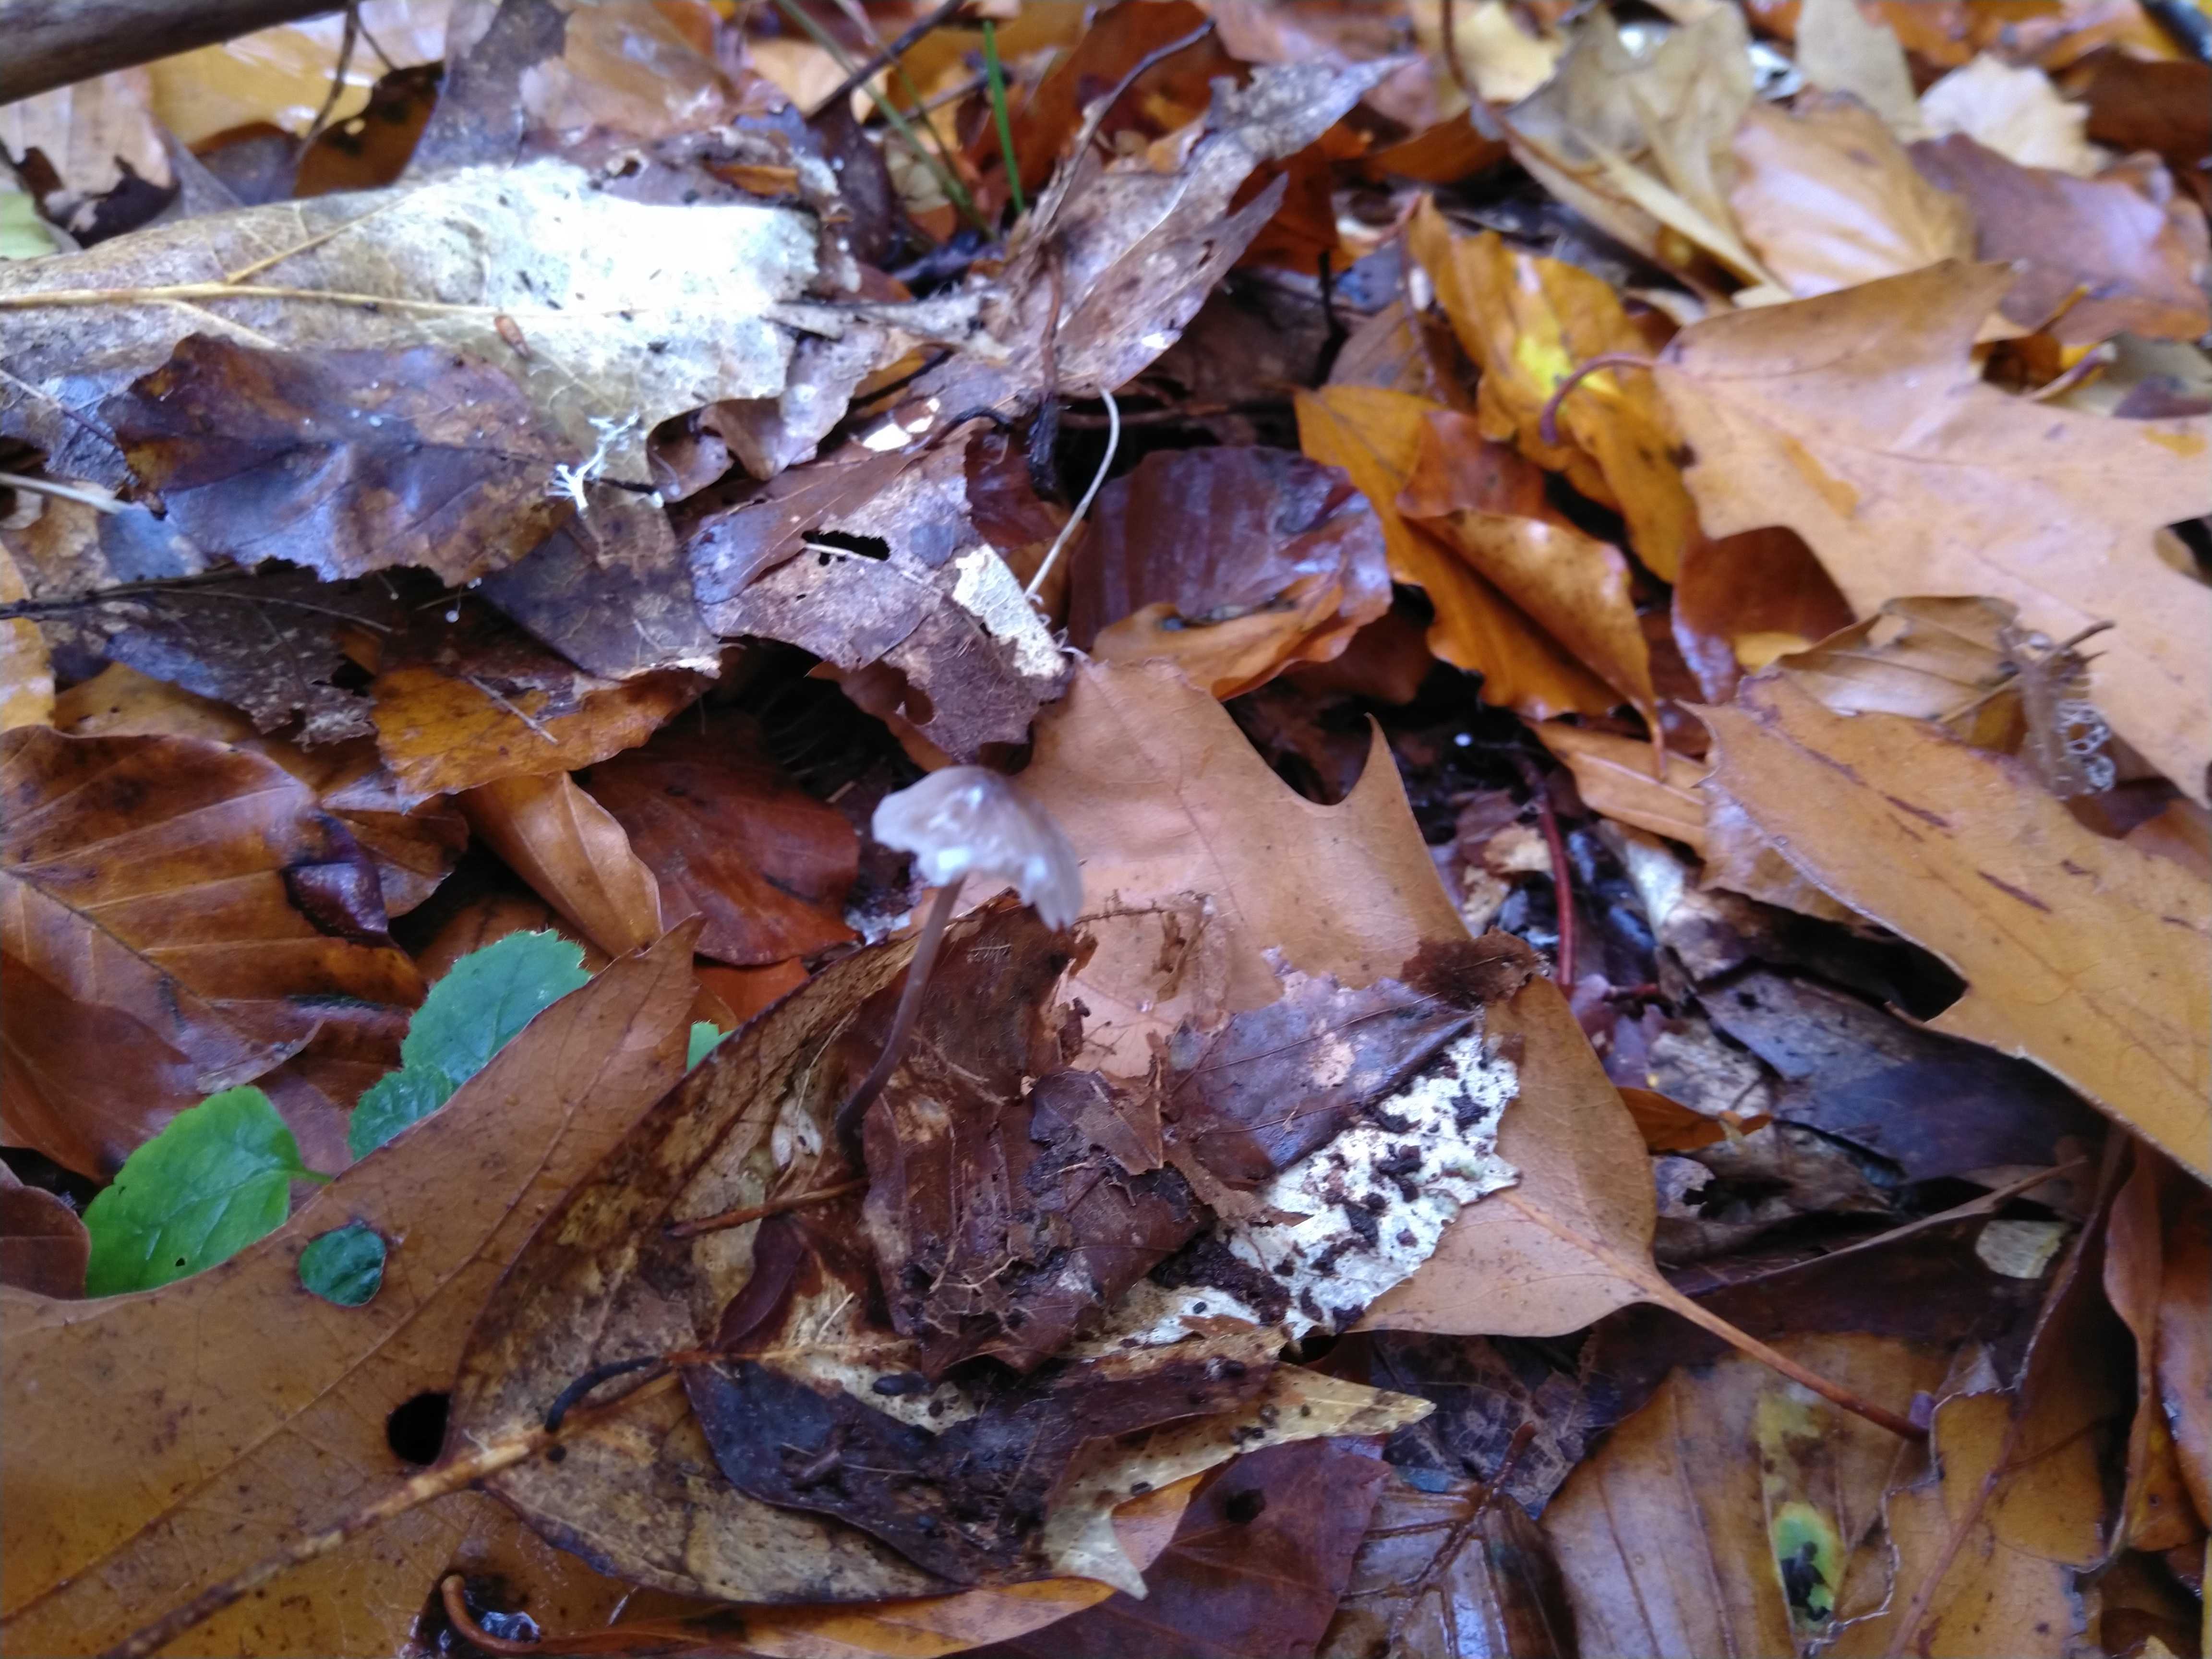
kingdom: Fungi
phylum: Basidiomycota
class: Agaricomycetes
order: Agaricales
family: Mycenaceae
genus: Mycena
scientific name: Mycena galopus
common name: hvidmælket huesvamp
